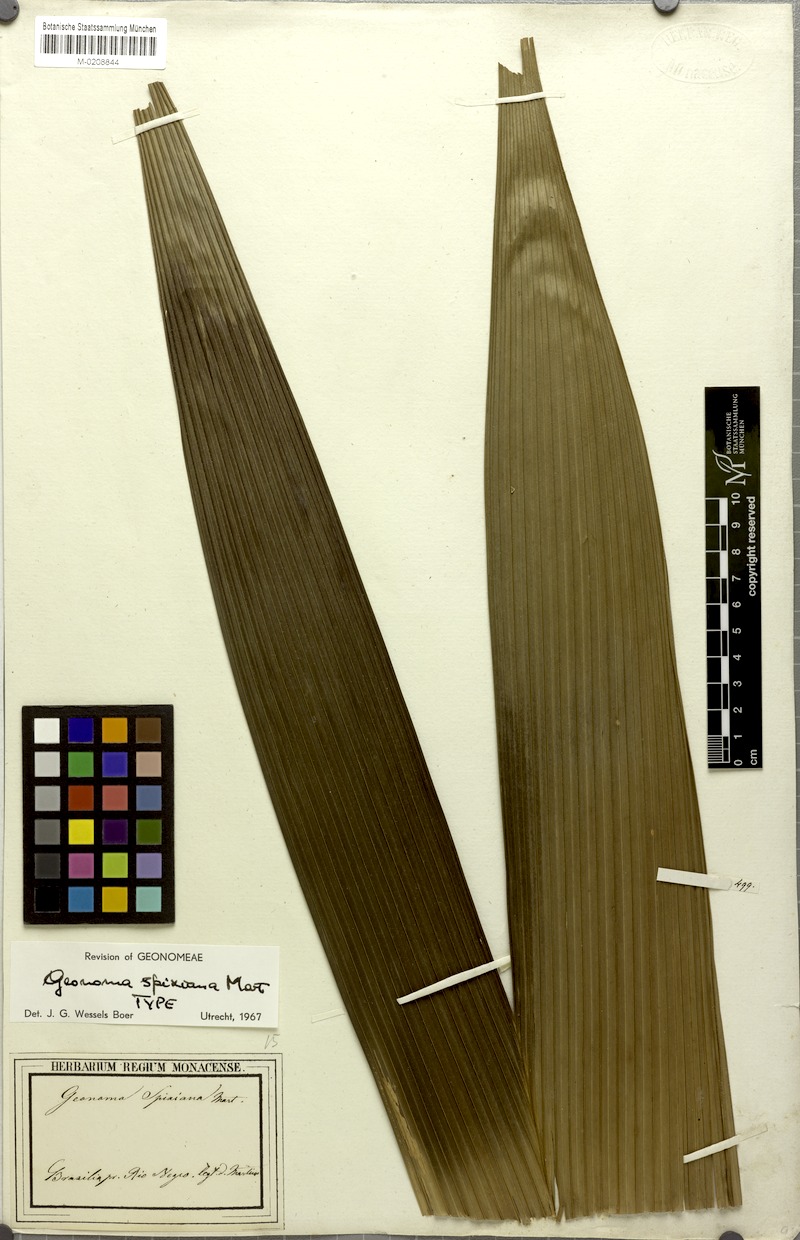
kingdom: Plantae
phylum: Tracheophyta
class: Liliopsida
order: Arecales
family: Arecaceae
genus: Geonoma
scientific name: Geonoma maxima
